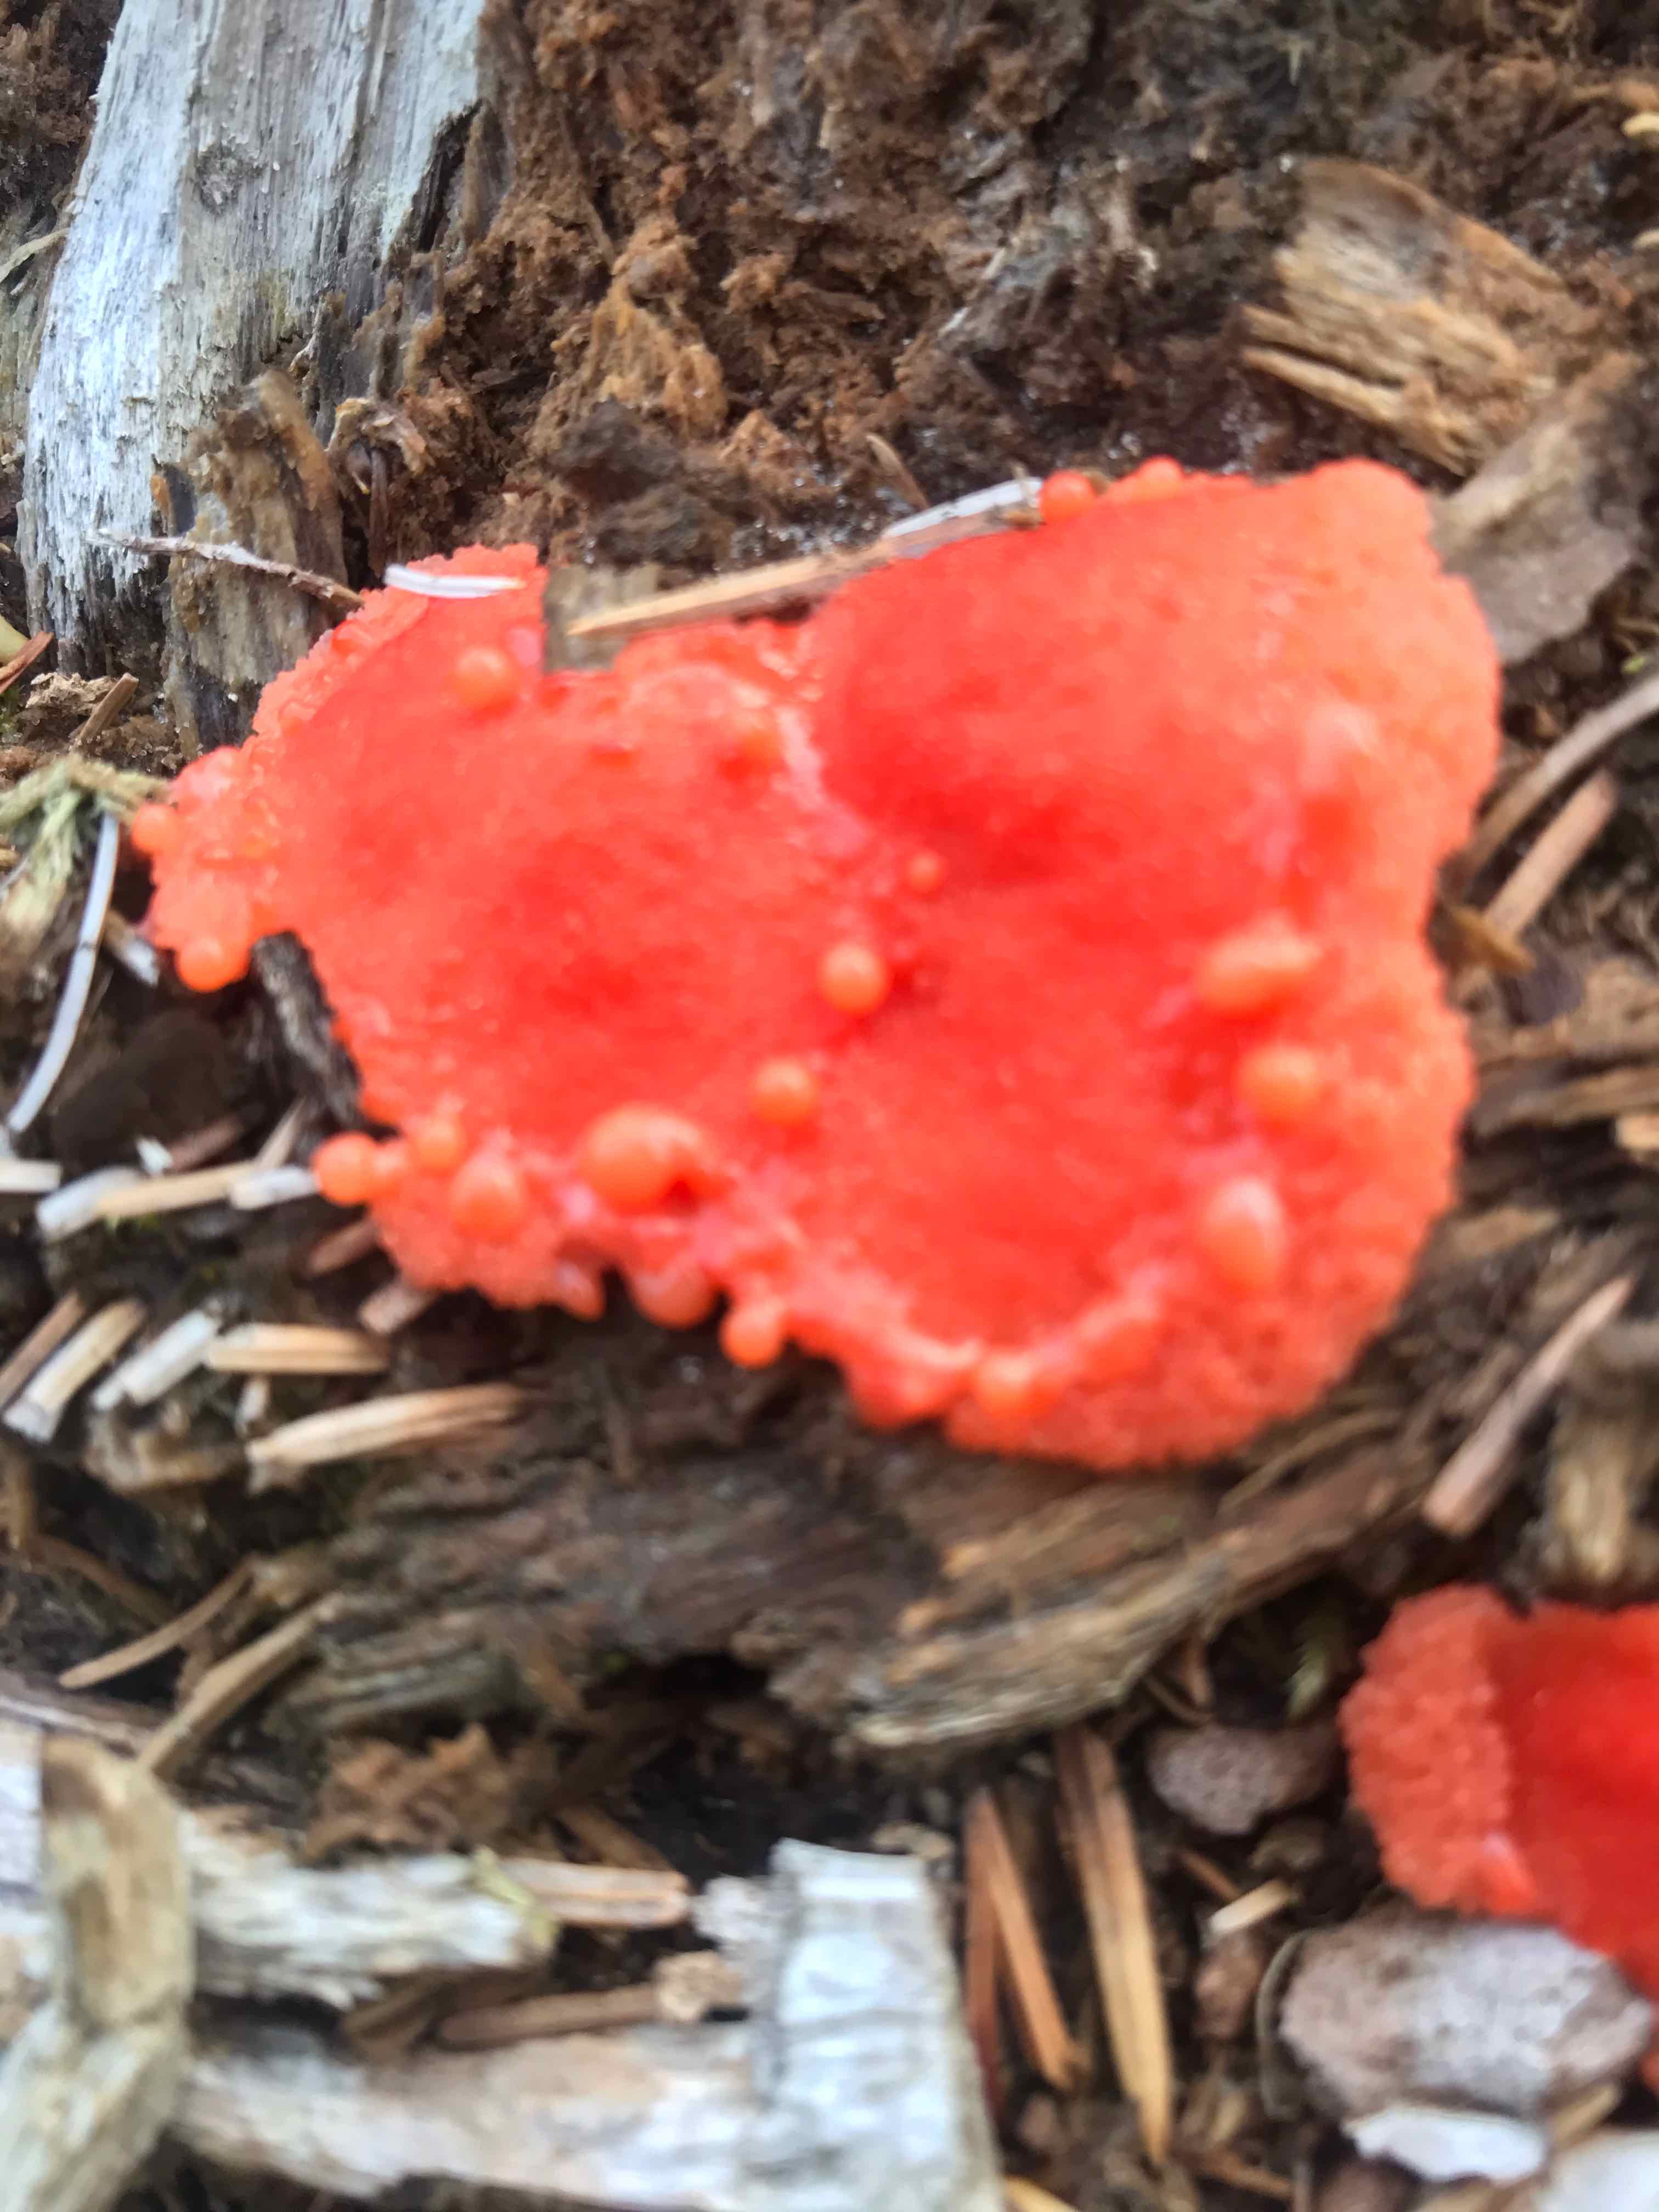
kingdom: Protozoa
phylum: Mycetozoa
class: Myxomycetes
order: Cribrariales
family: Tubiferaceae
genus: Tubifera
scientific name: Tubifera ferruginosa
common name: kanel-støvrør
